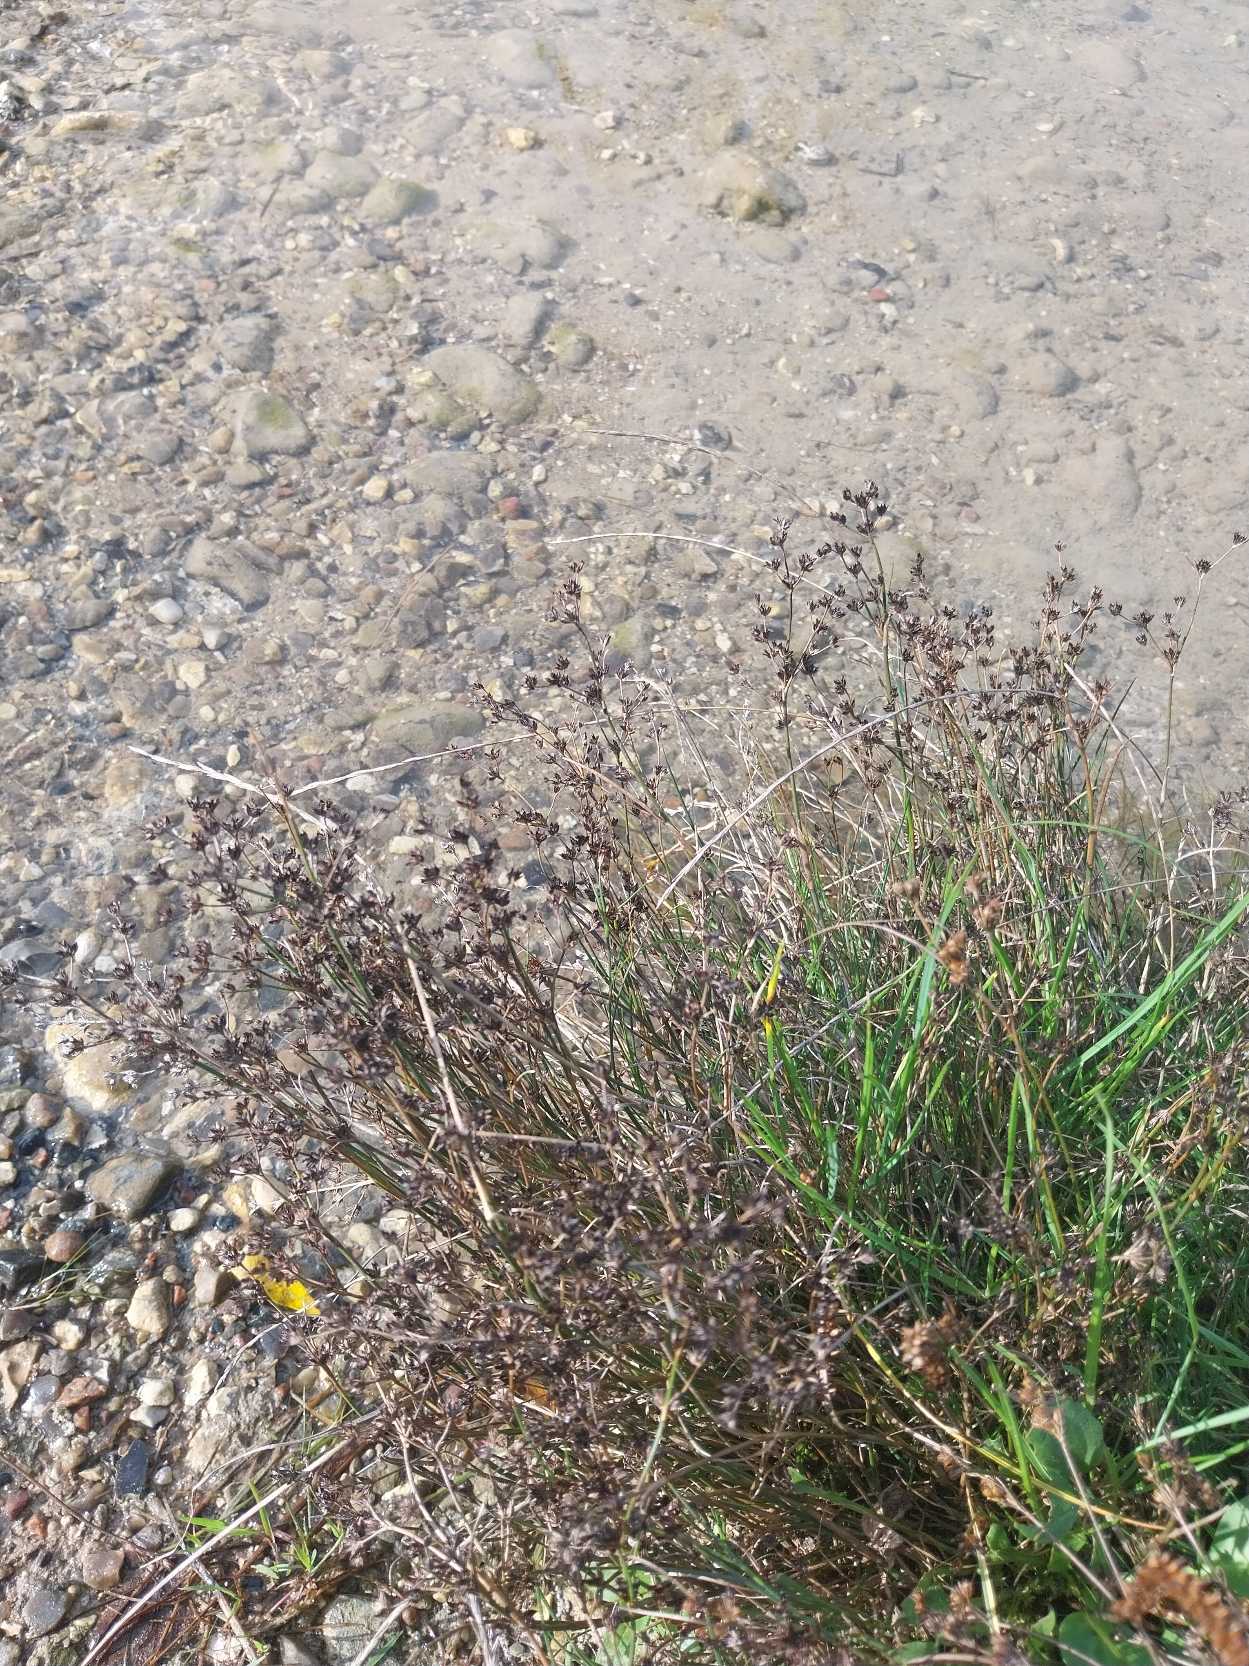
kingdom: Plantae
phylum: Tracheophyta
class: Liliopsida
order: Poales
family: Juncaceae
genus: Juncus
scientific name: Juncus articulatus
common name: Glanskapslet siv
